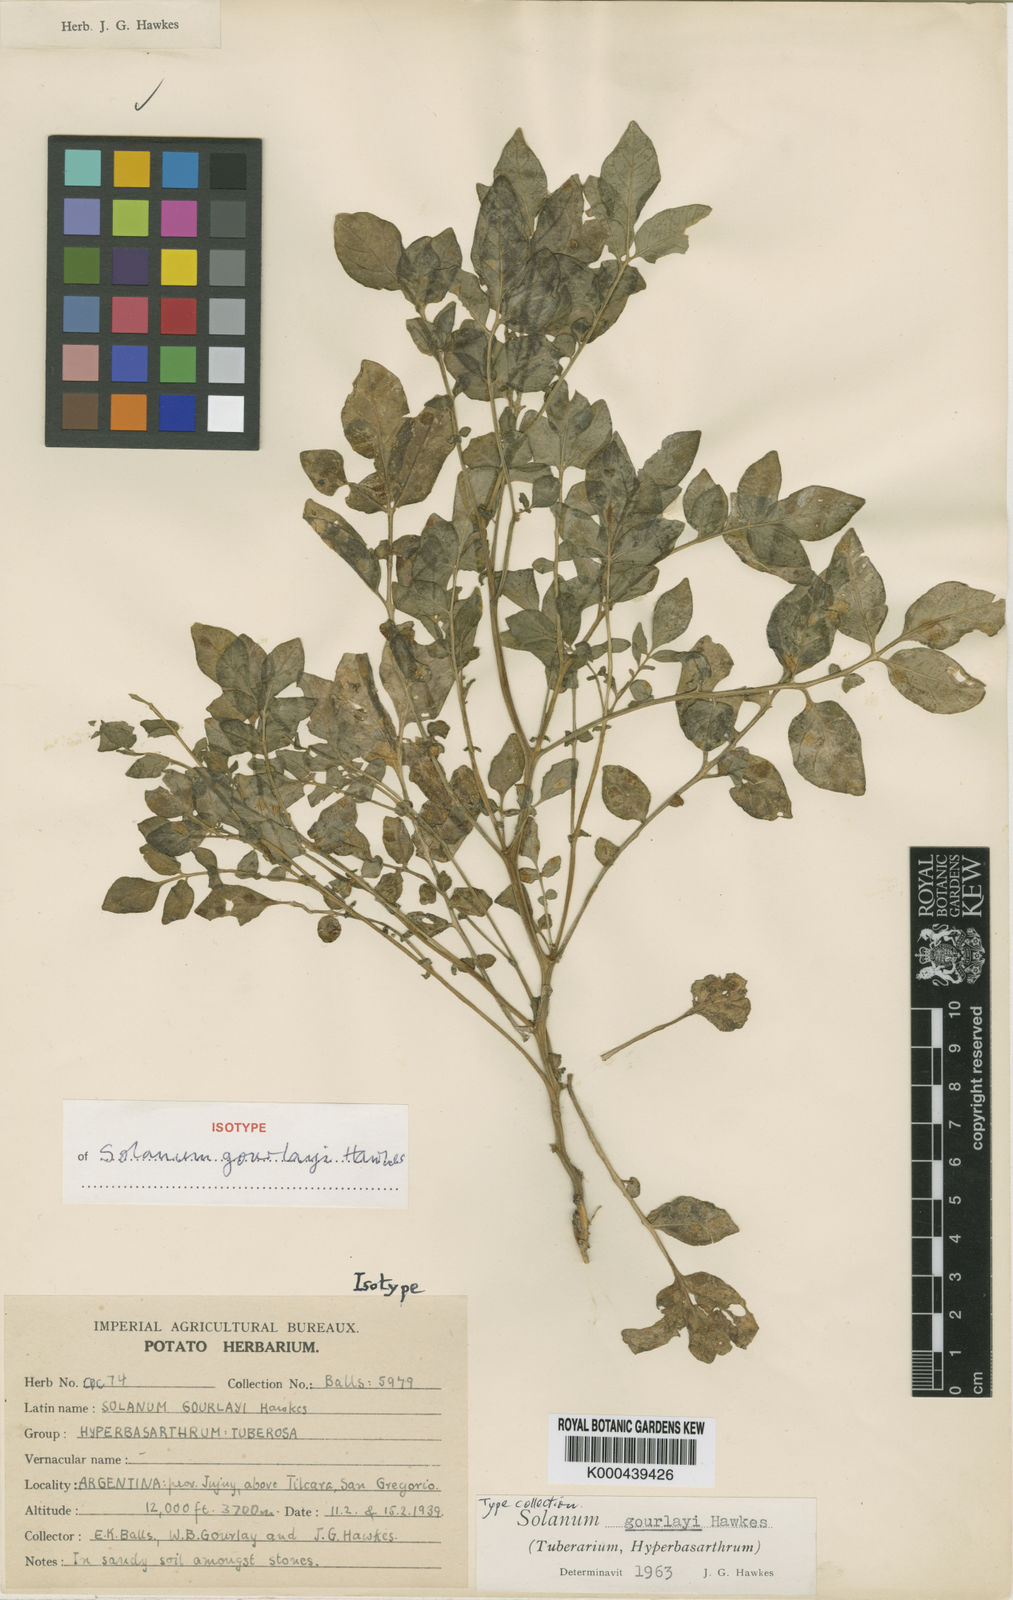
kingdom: Plantae
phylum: Tracheophyta
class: Magnoliopsida
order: Solanales
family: Solanaceae
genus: Solanum
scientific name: Solanum brevicaule
